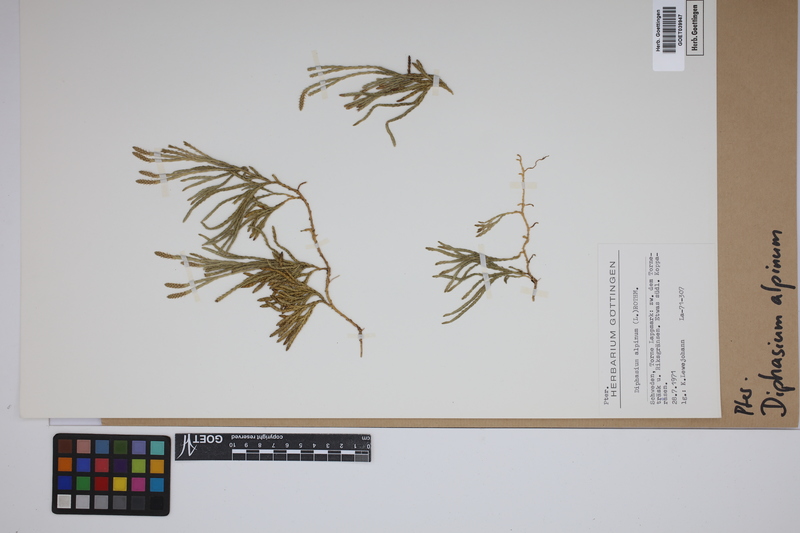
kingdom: Plantae
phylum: Tracheophyta
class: Lycopodiopsida
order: Lycopodiales
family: Lycopodiaceae
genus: Diphasiastrum
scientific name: Diphasiastrum alpinum
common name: Alpine clubmoss
